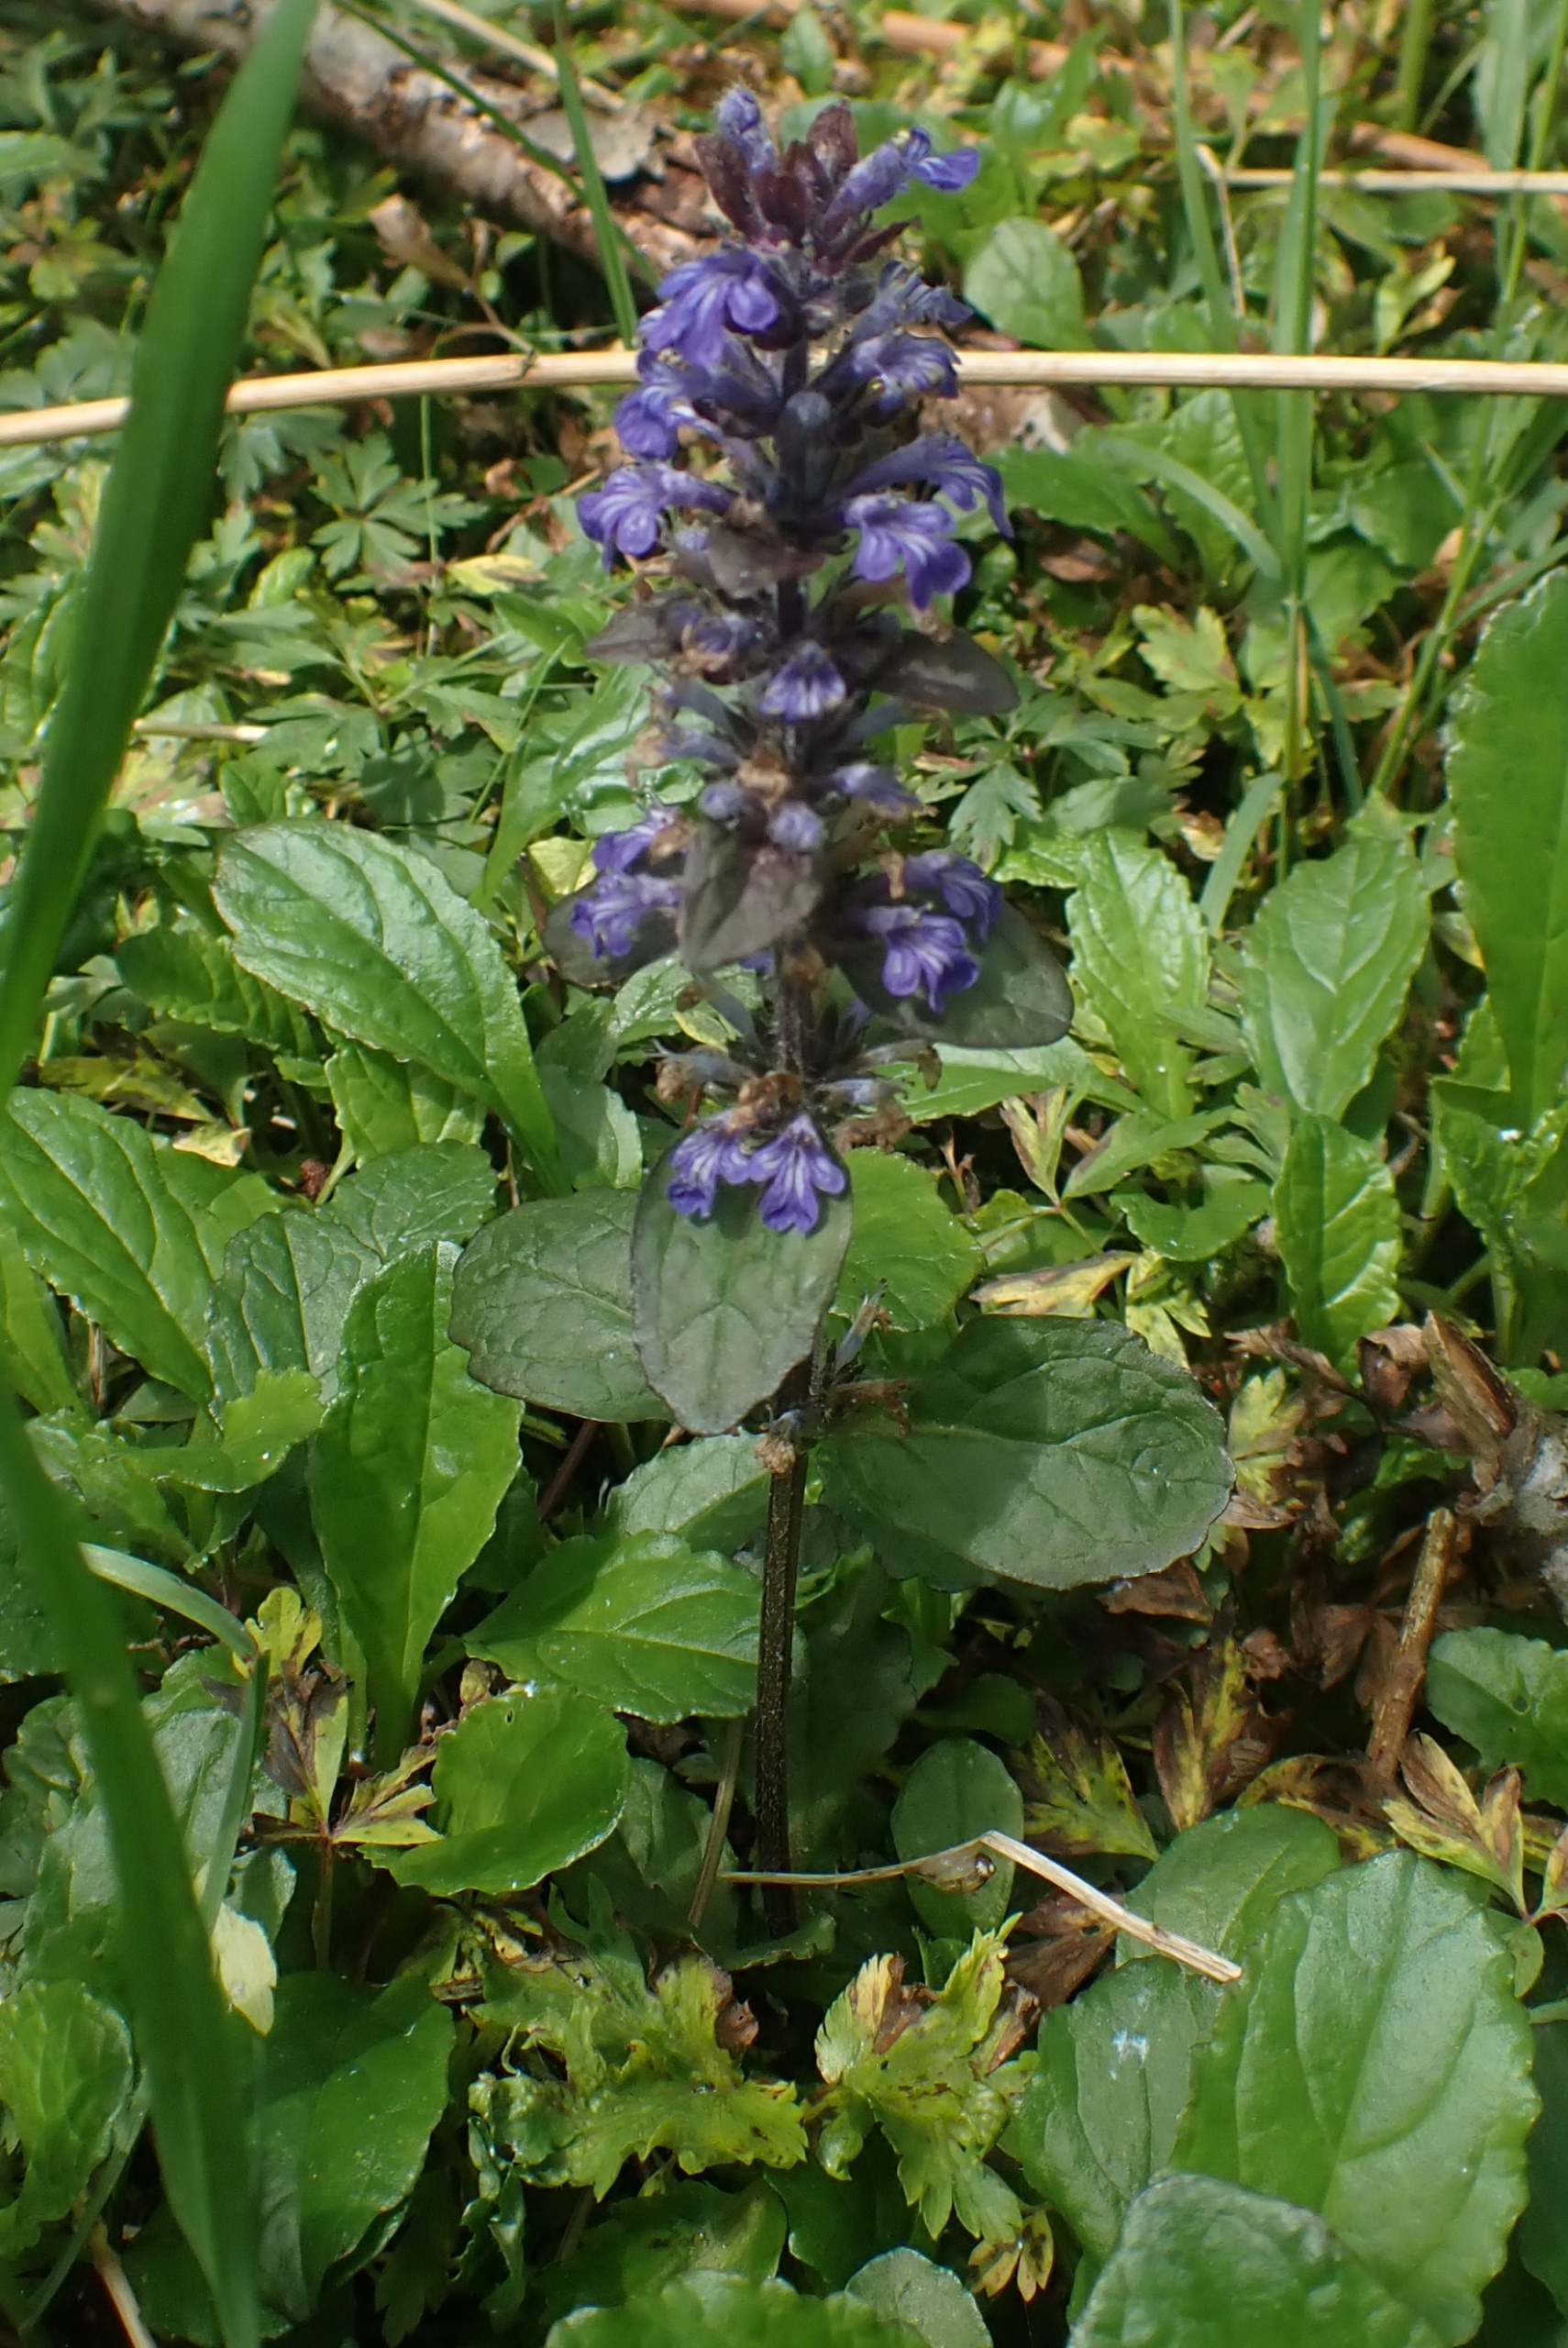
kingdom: Plantae
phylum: Tracheophyta
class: Magnoliopsida
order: Lamiales
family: Lamiaceae
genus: Ajuga
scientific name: Ajuga reptans
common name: Krybende læbeløs
